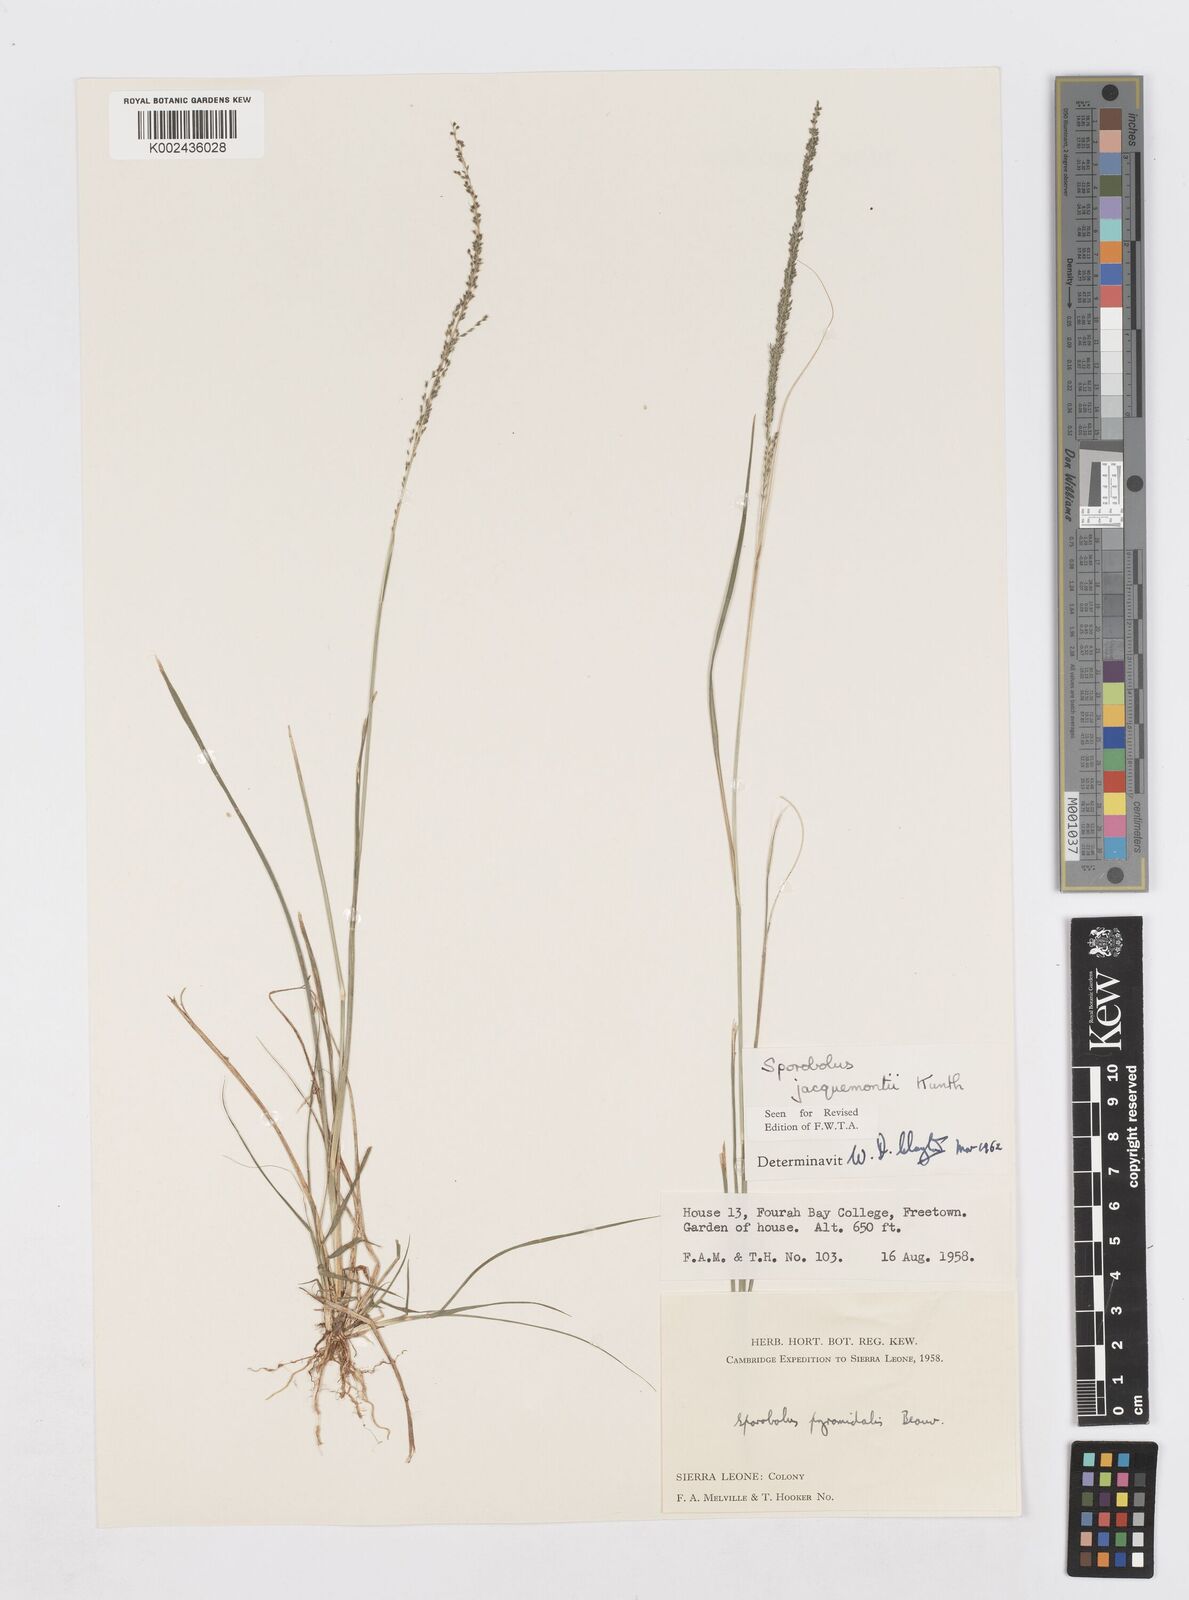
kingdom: Plantae
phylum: Tracheophyta
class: Liliopsida
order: Poales
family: Poaceae
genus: Sporobolus
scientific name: Sporobolus pyramidalis
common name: West indian dropseed
